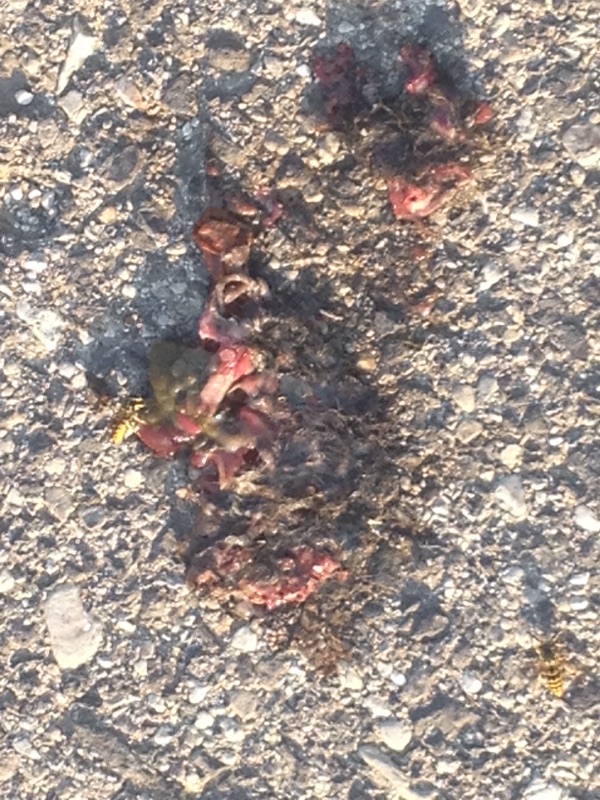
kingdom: Animalia
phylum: Chordata
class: Mammalia
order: Soricomorpha
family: Talpidae
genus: Talpa
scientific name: Talpa europaea
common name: European mole
